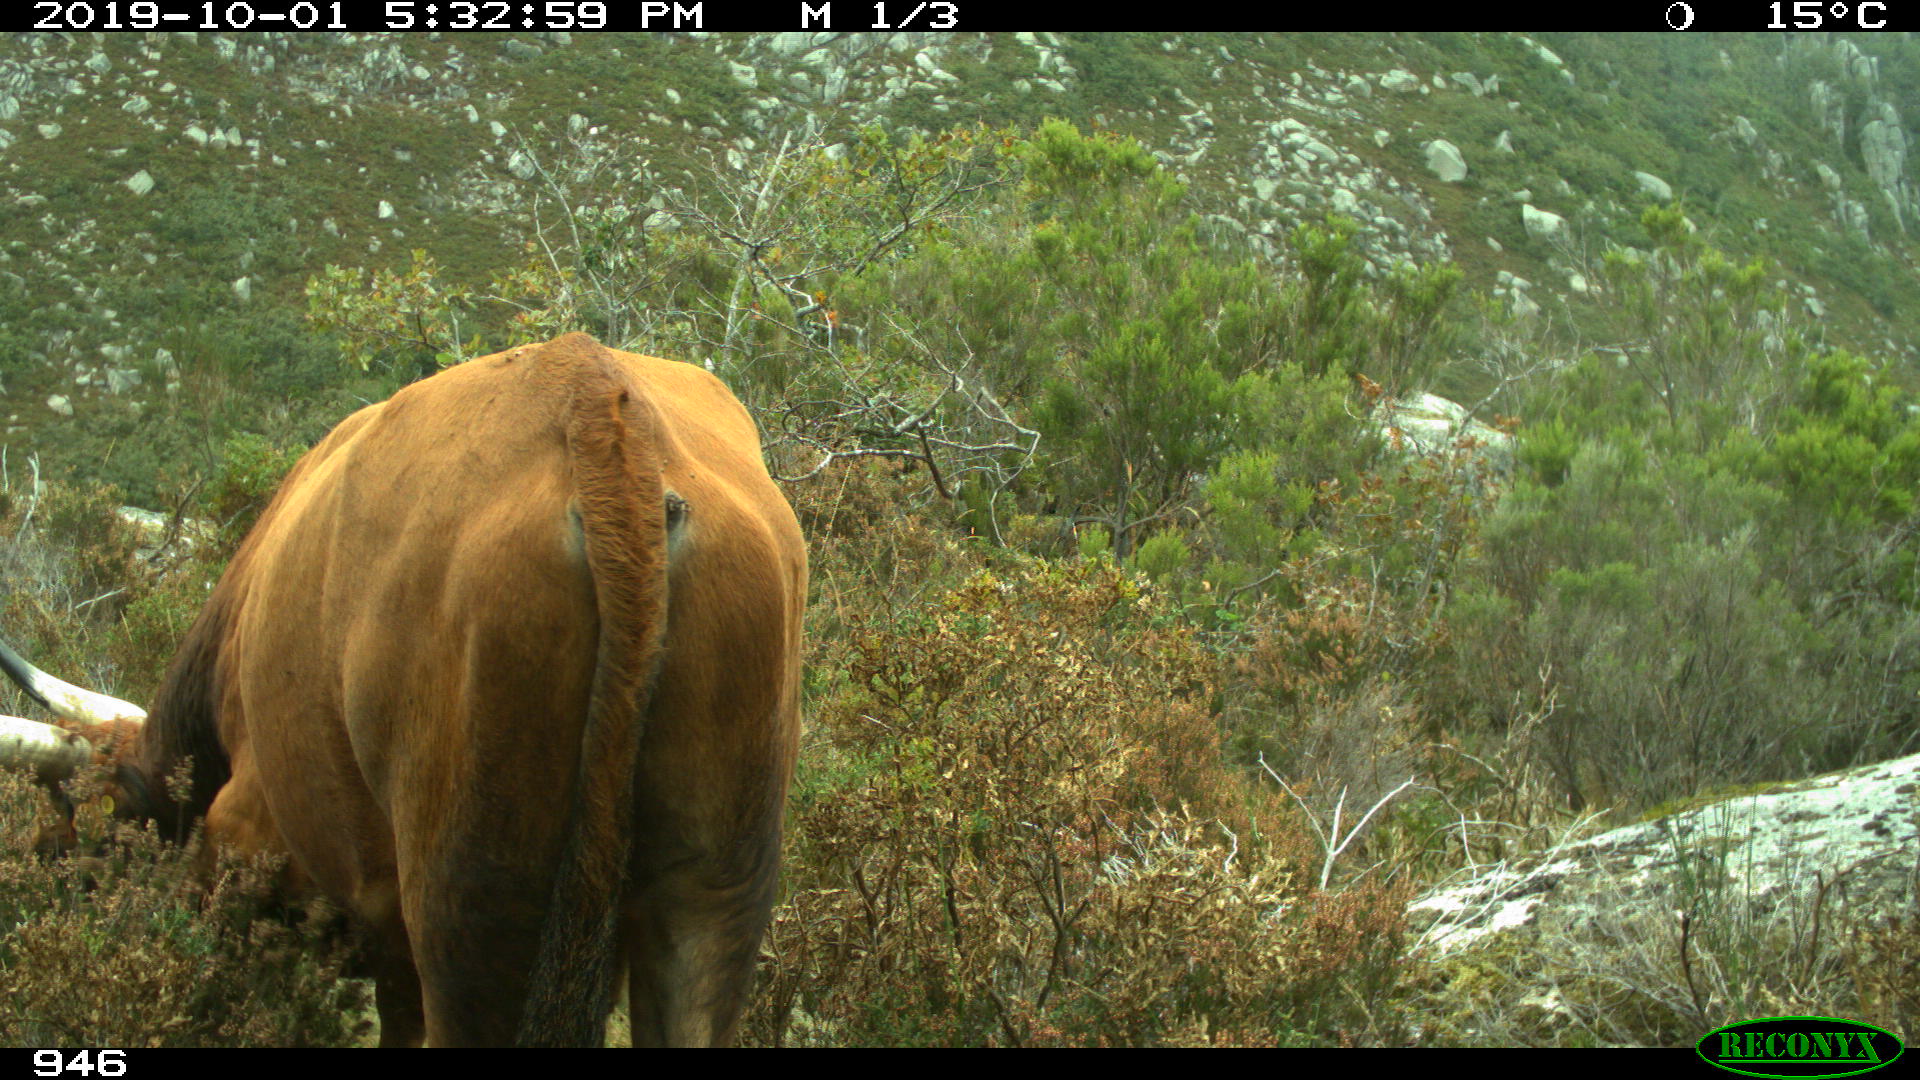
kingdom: Animalia
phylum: Chordata
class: Mammalia
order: Artiodactyla
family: Bovidae
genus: Bos
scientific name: Bos taurus
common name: Domesticated cattle
